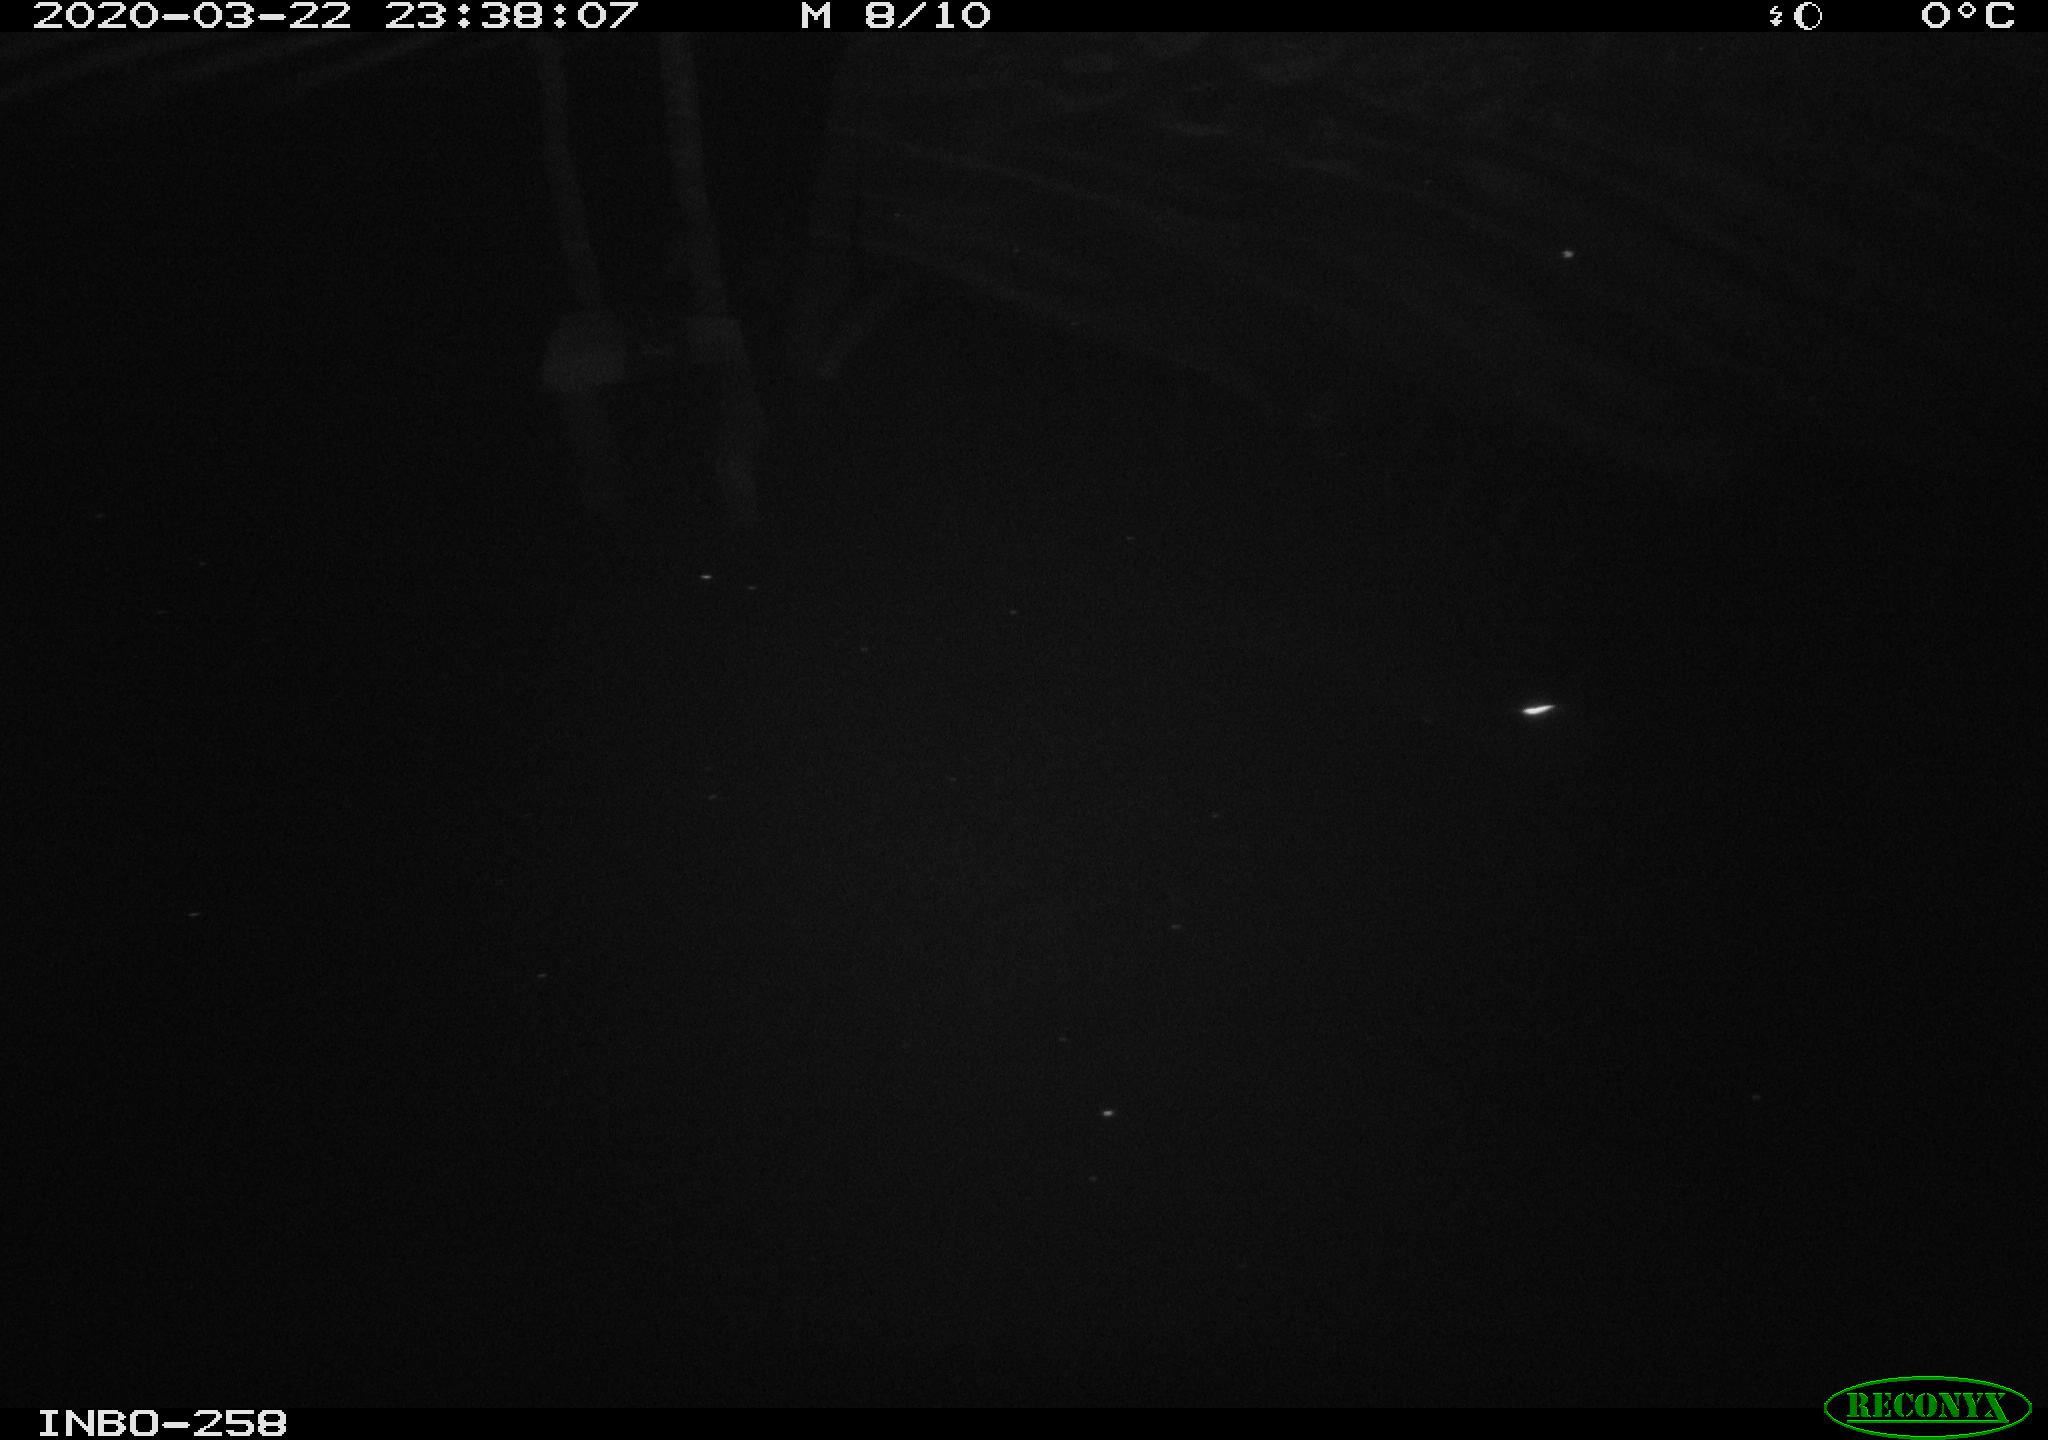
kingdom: Animalia
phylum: Chordata
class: Aves
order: Anseriformes
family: Anatidae
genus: Anas
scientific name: Anas platyrhynchos
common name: Mallard
